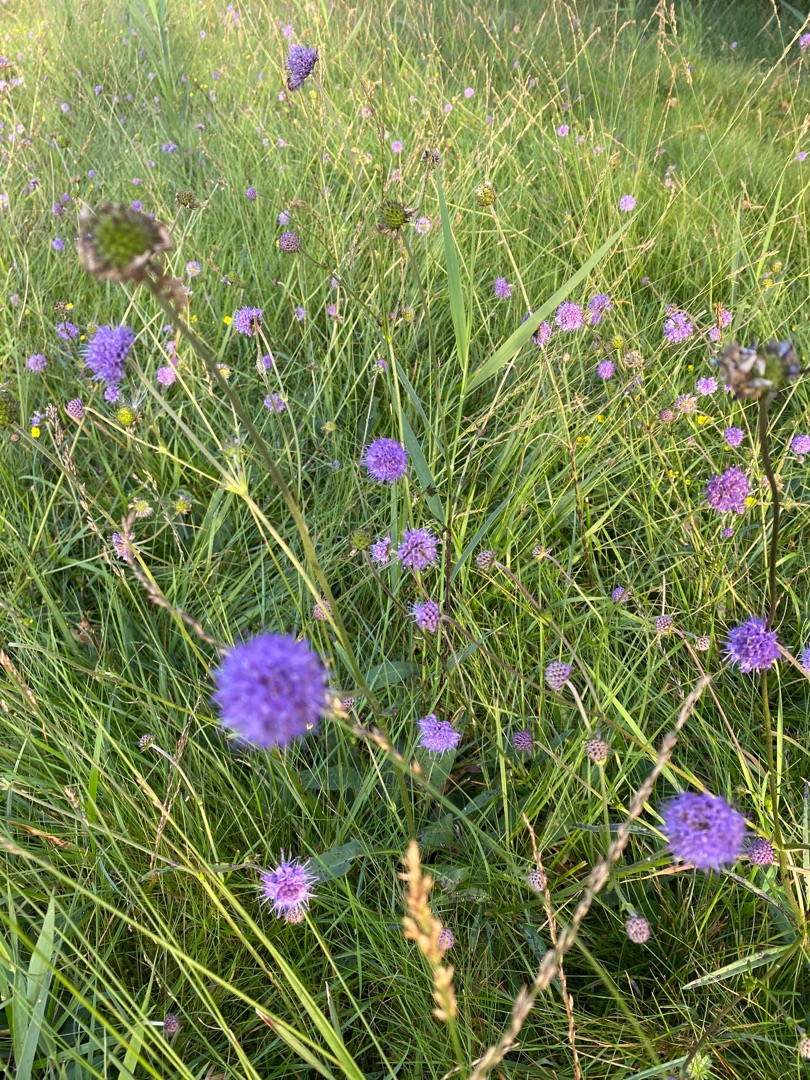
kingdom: Plantae
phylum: Tracheophyta
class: Magnoliopsida
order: Dipsacales
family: Caprifoliaceae
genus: Succisa
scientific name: Succisa pratensis
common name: Djævelsbid
